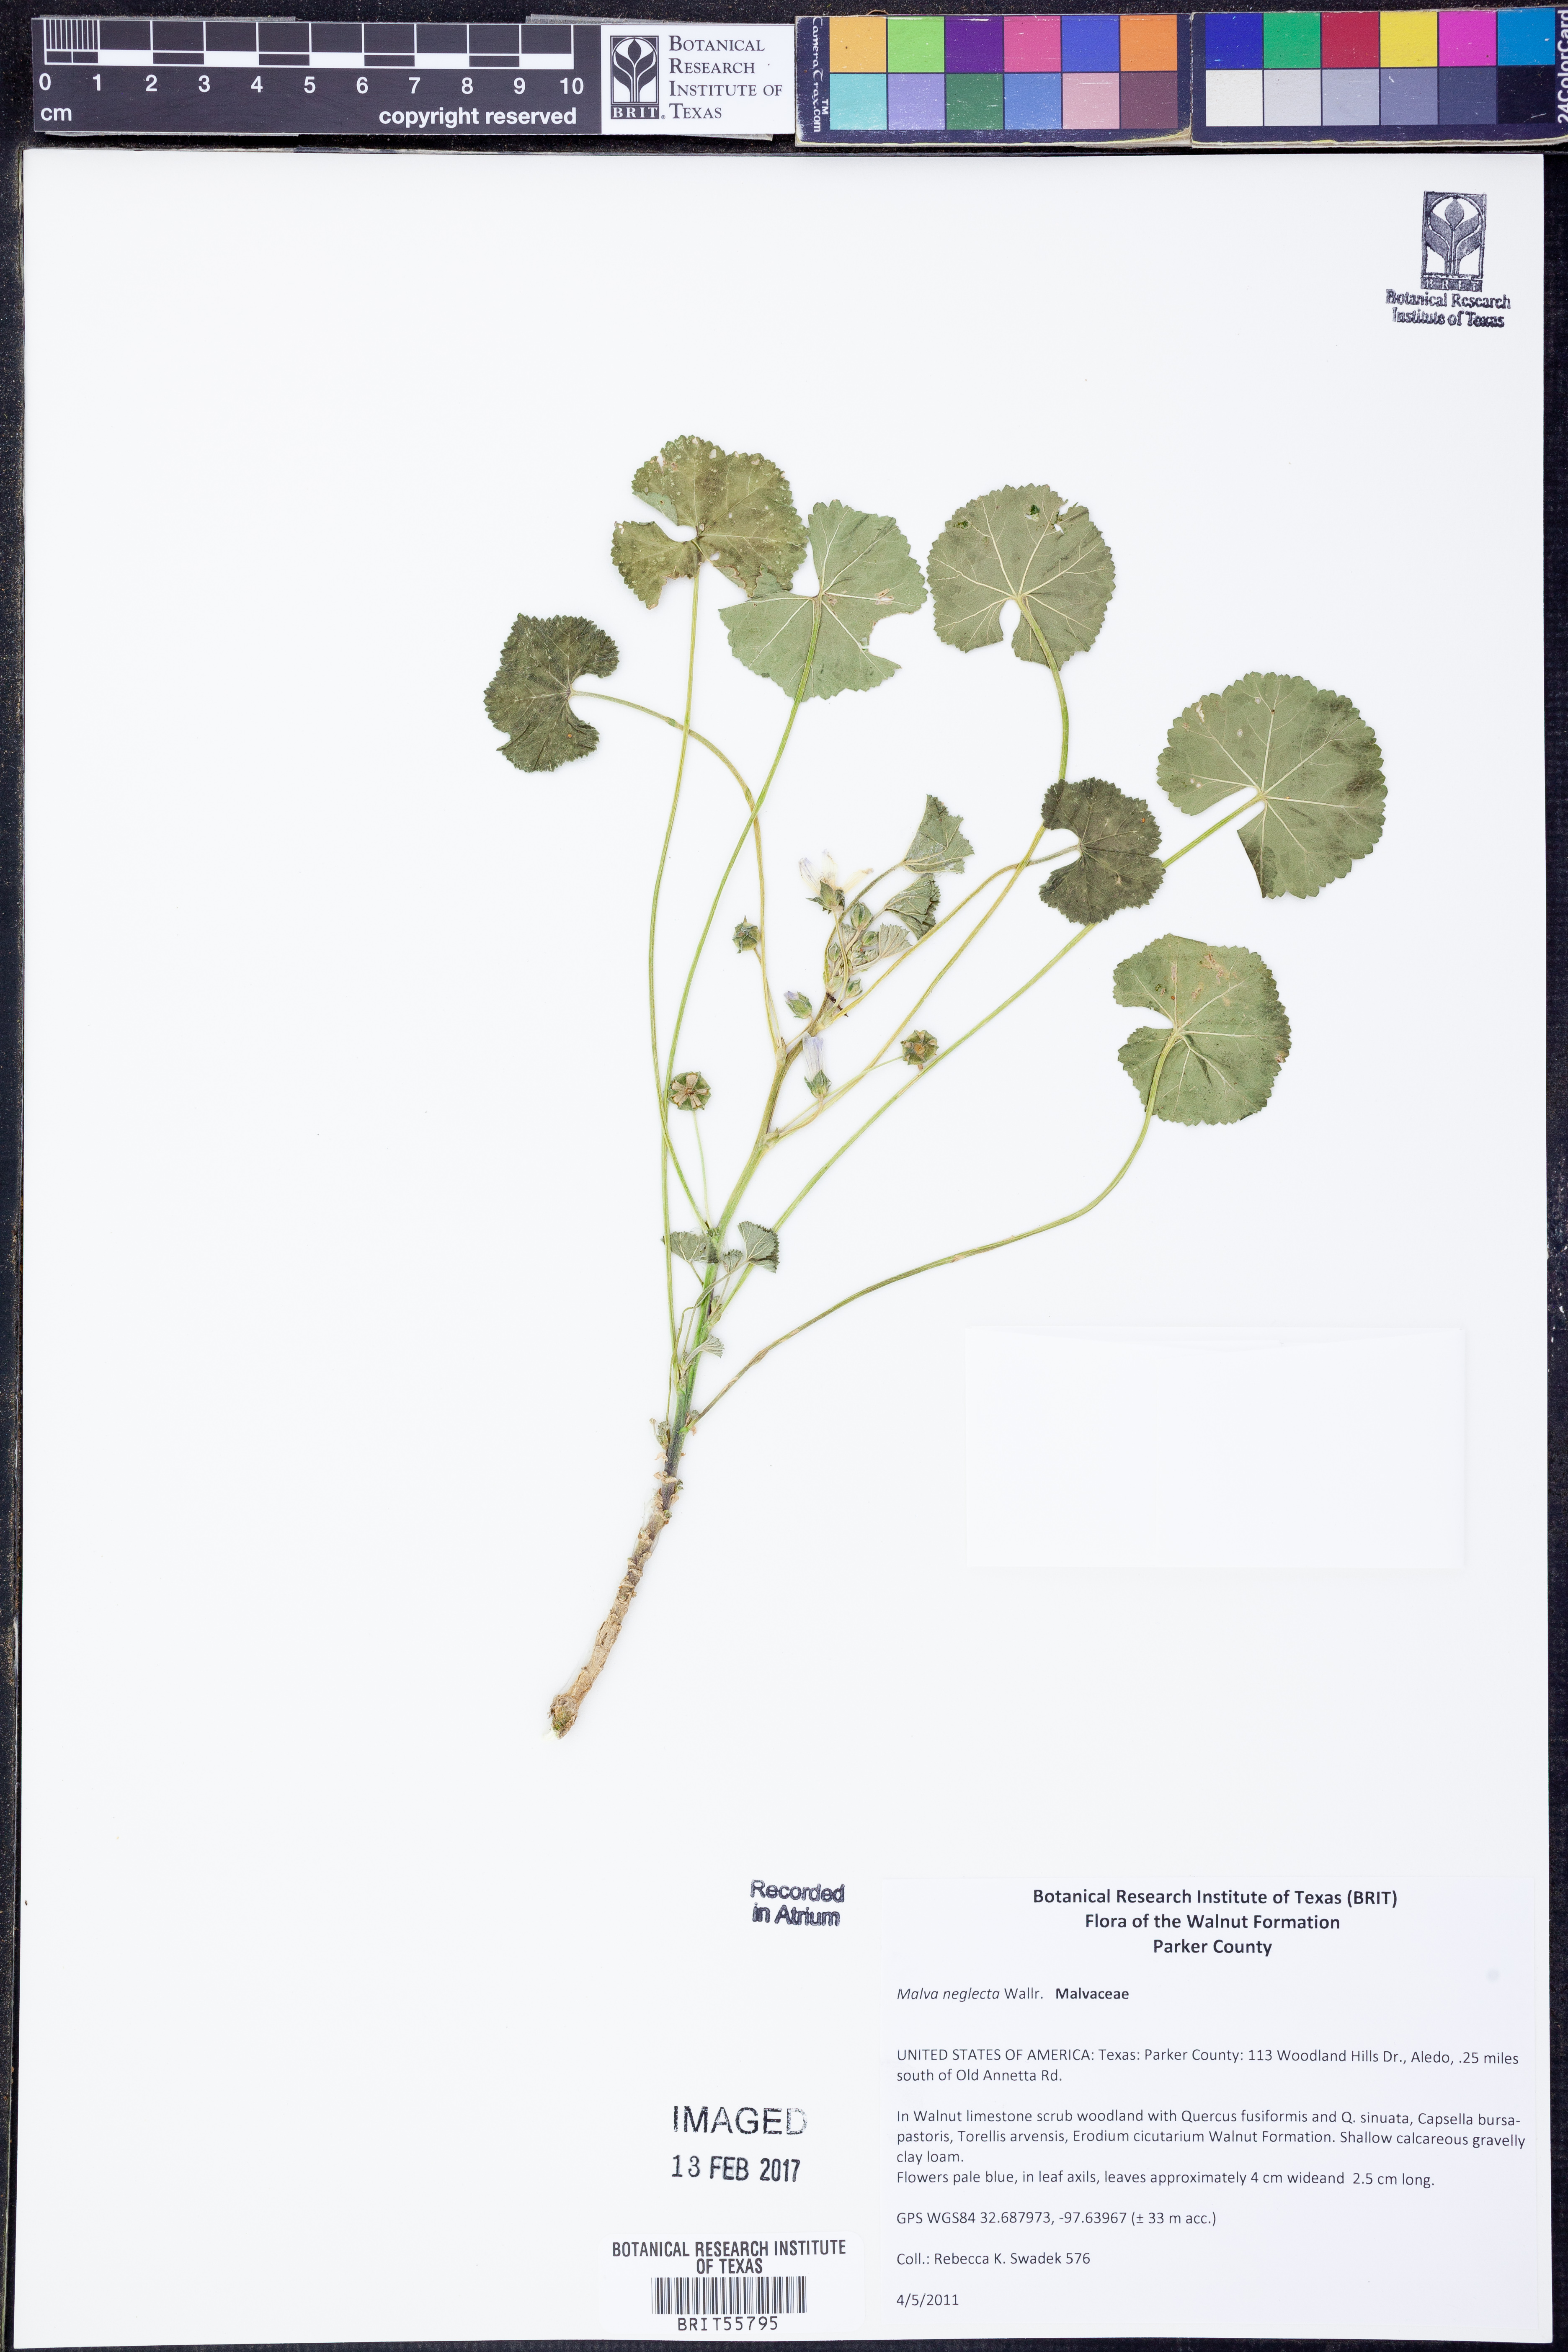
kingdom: Plantae
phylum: Tracheophyta
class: Magnoliopsida
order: Malvales
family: Malvaceae
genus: Malva
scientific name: Malva neglecta
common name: Common mallow
